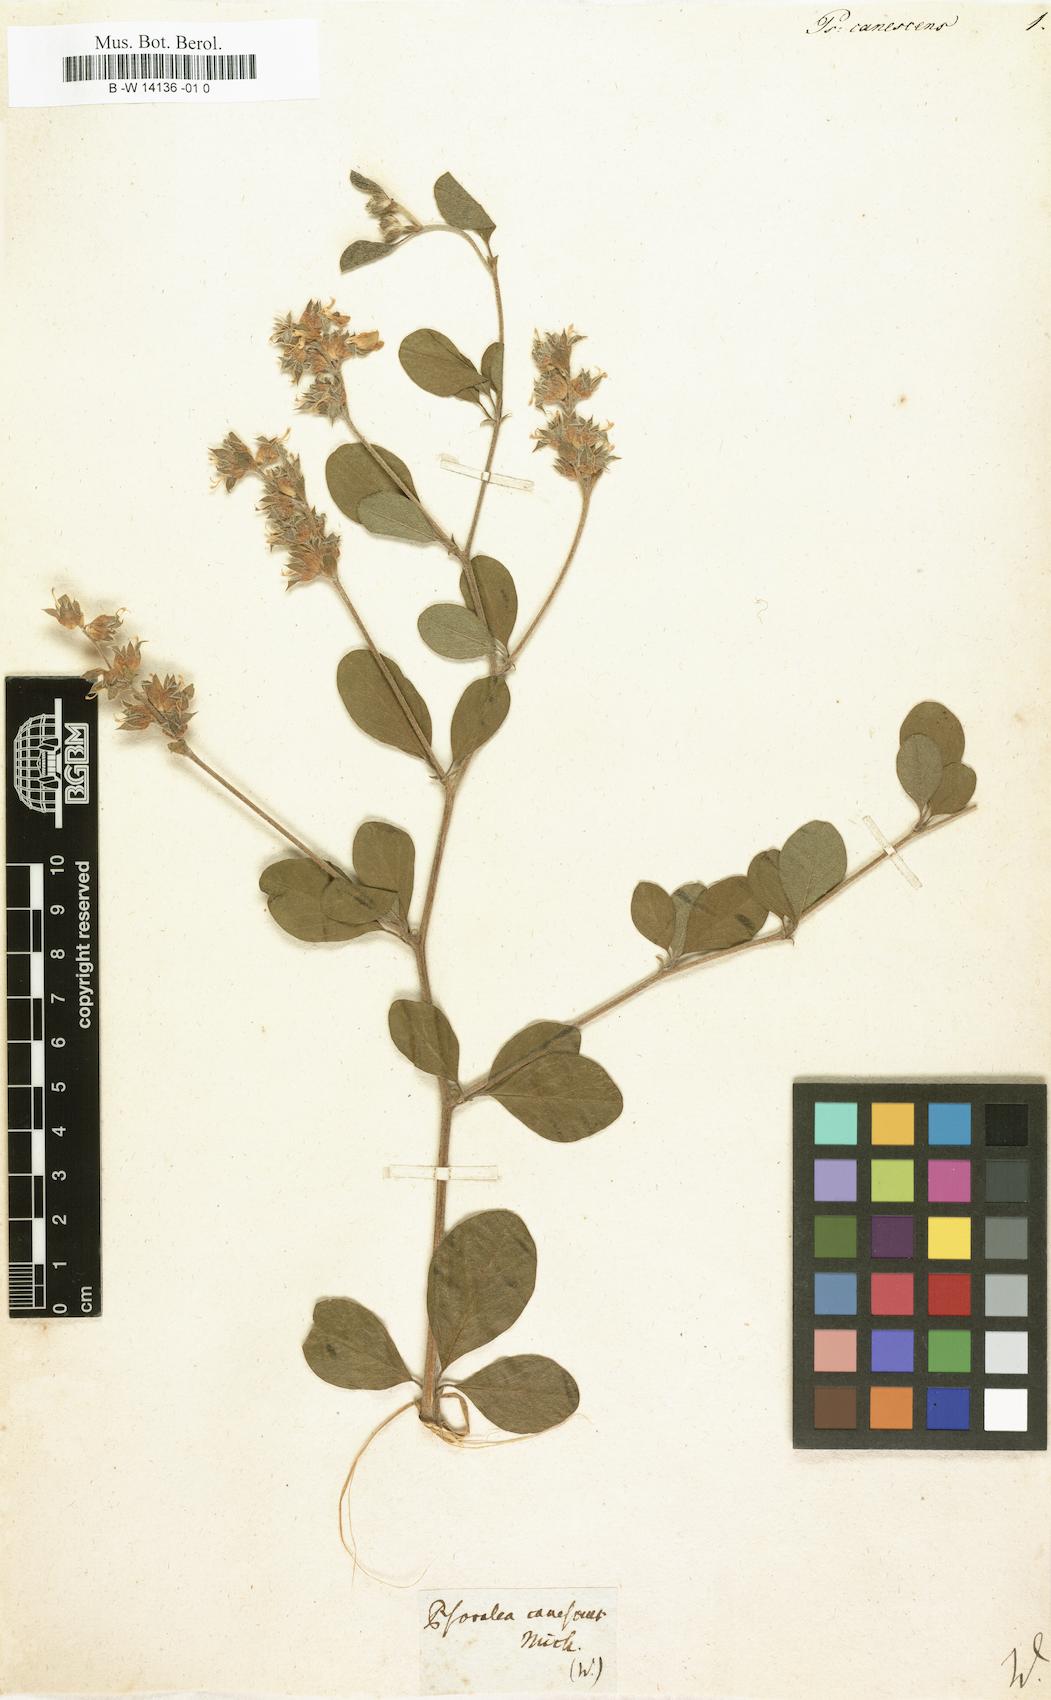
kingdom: Plantae
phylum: Tracheophyta
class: Magnoliopsida
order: Fabales
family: Fabaceae
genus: Pediomelum
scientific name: Pediomelum canescens
